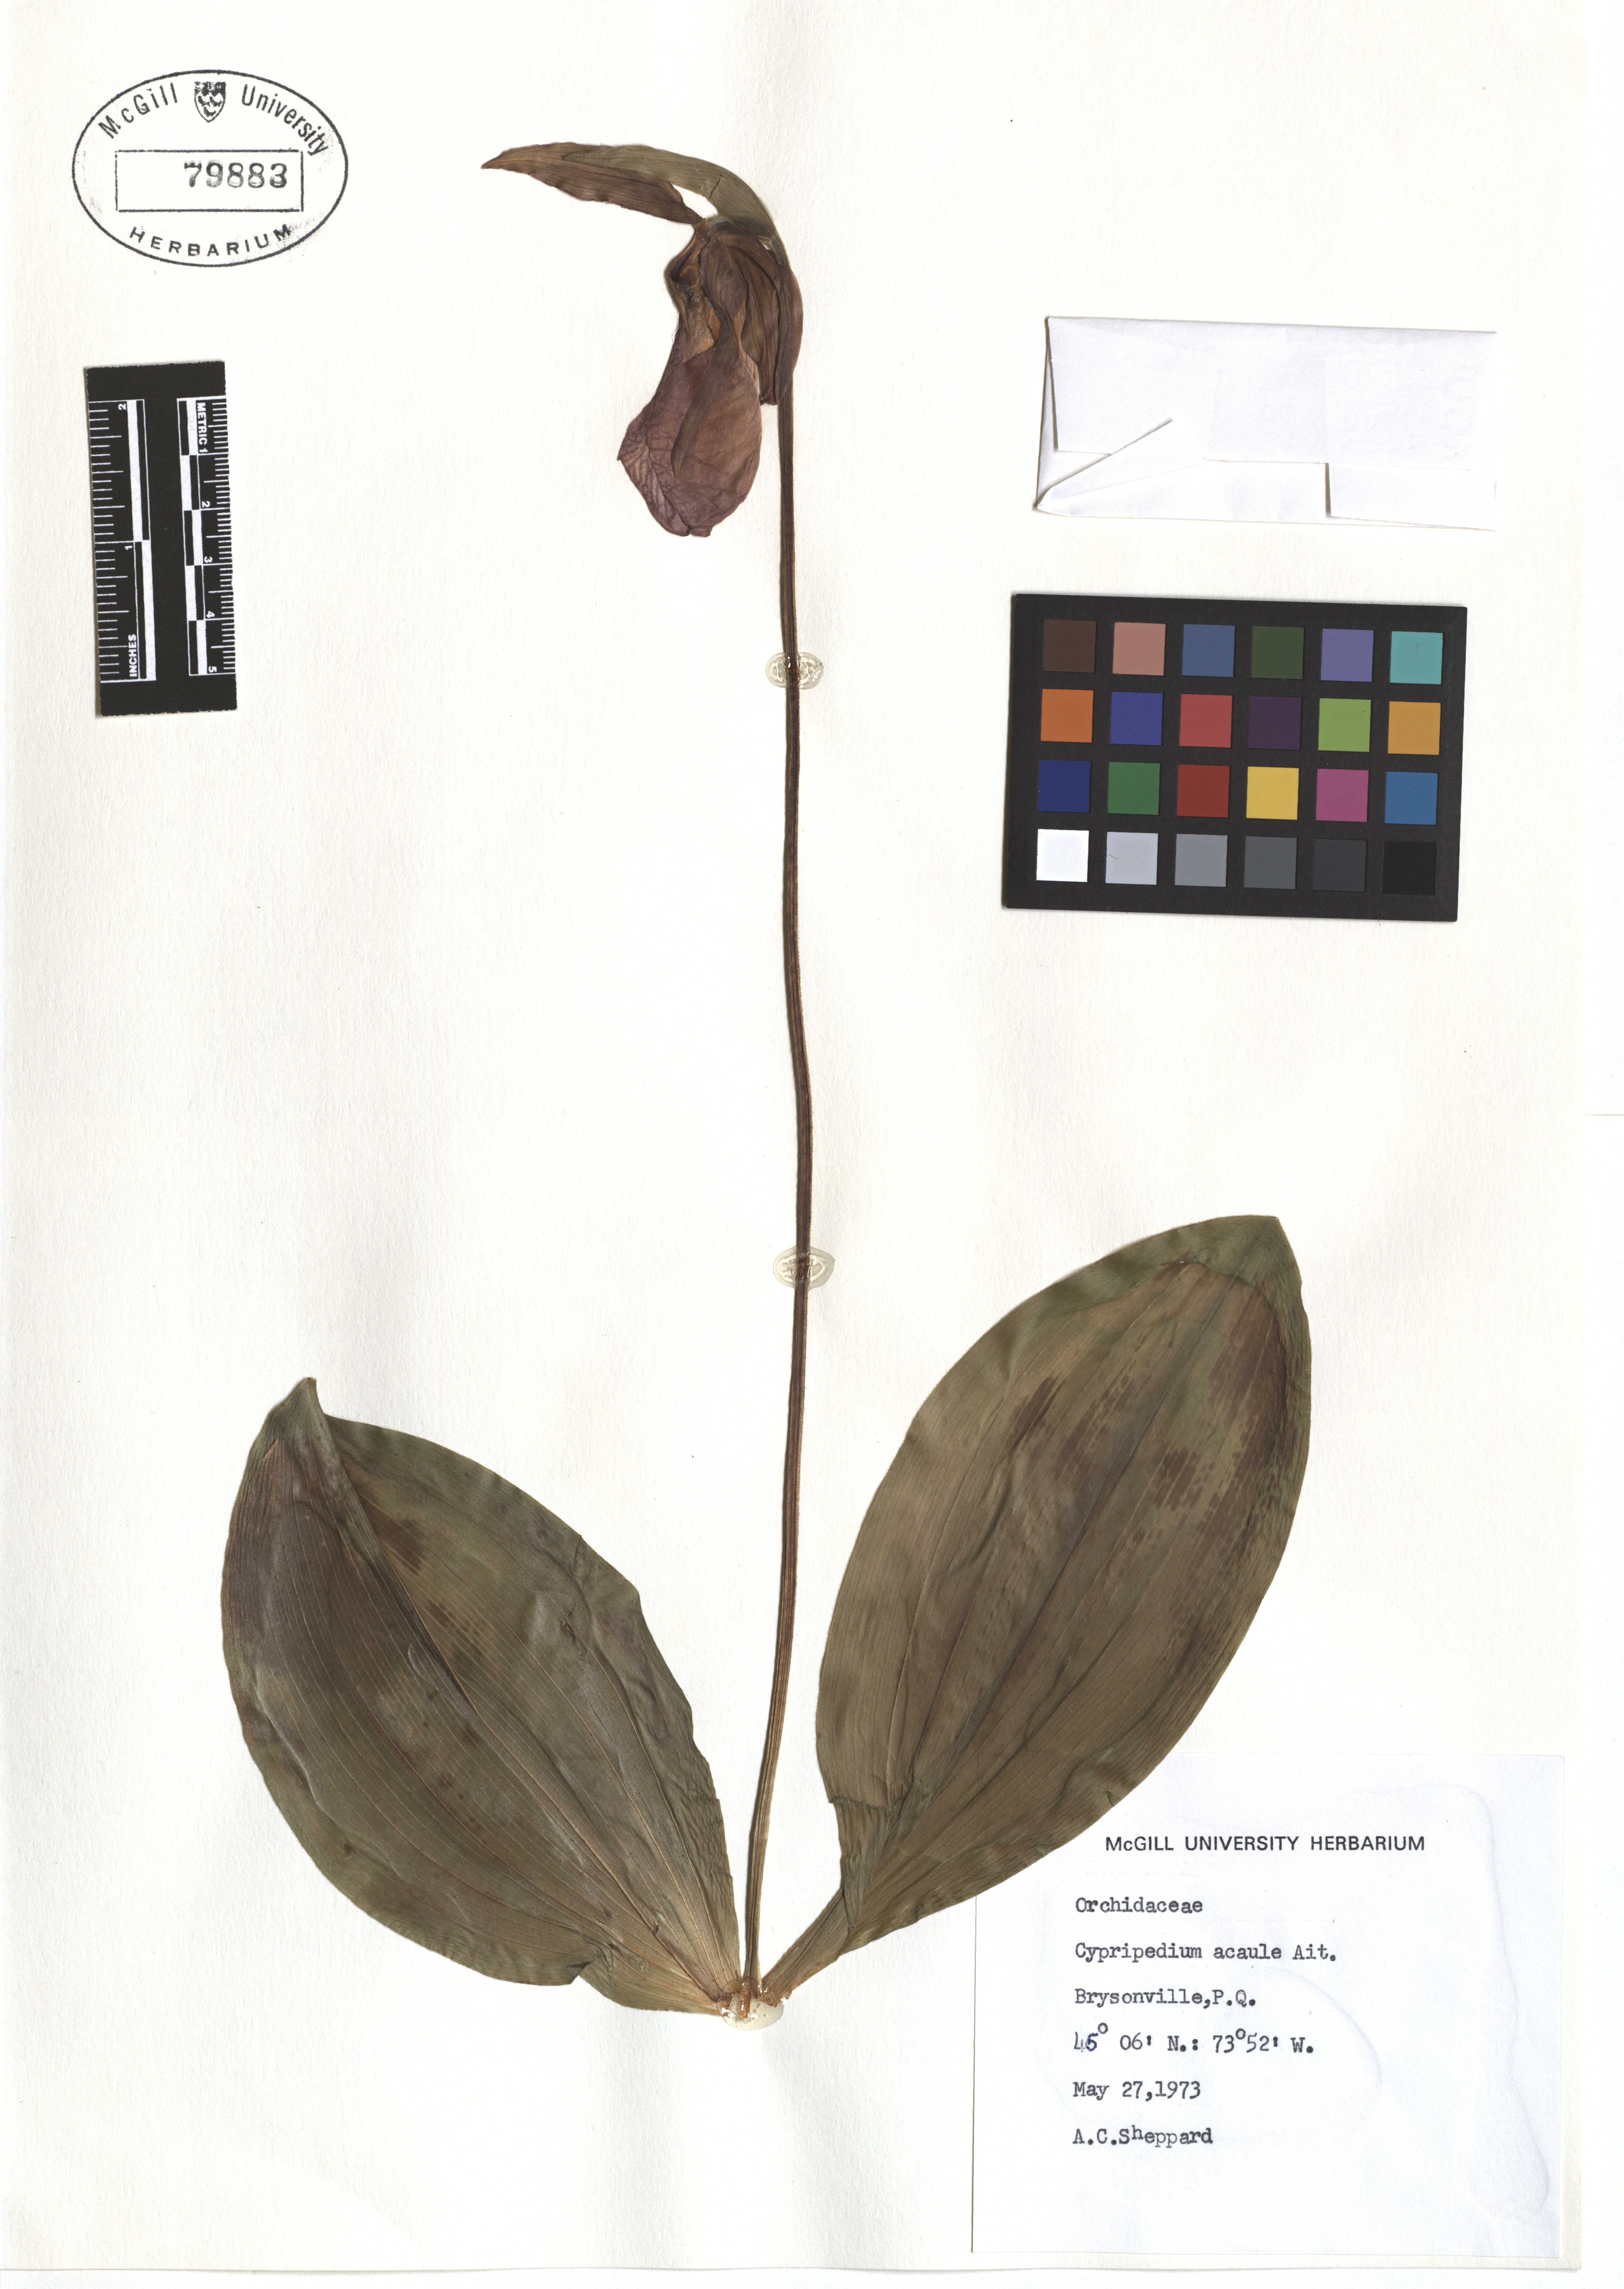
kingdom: Plantae
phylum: Tracheophyta
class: Liliopsida
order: Asparagales
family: Orchidaceae
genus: Cypripedium
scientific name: Cypripedium acaule
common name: Pink lady's-slipper
